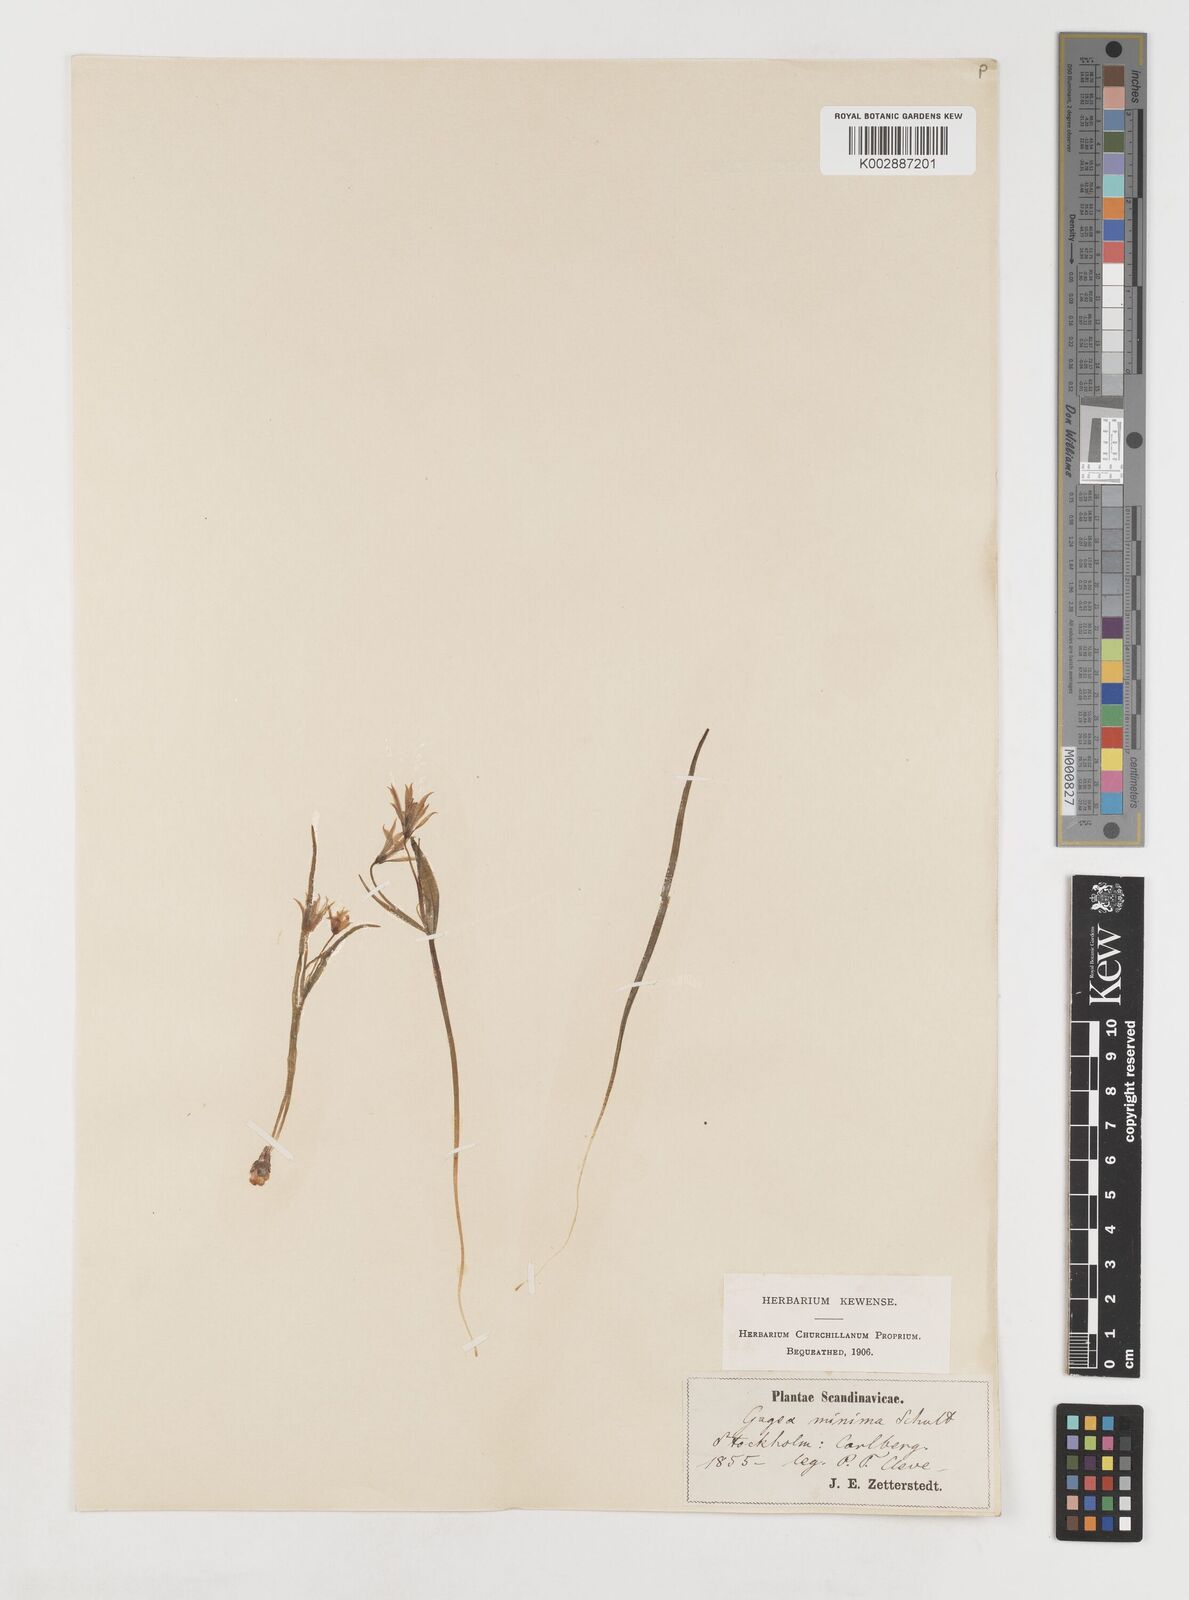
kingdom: Plantae
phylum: Tracheophyta
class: Liliopsida
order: Liliales
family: Liliaceae
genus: Gagea
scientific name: Gagea minima
